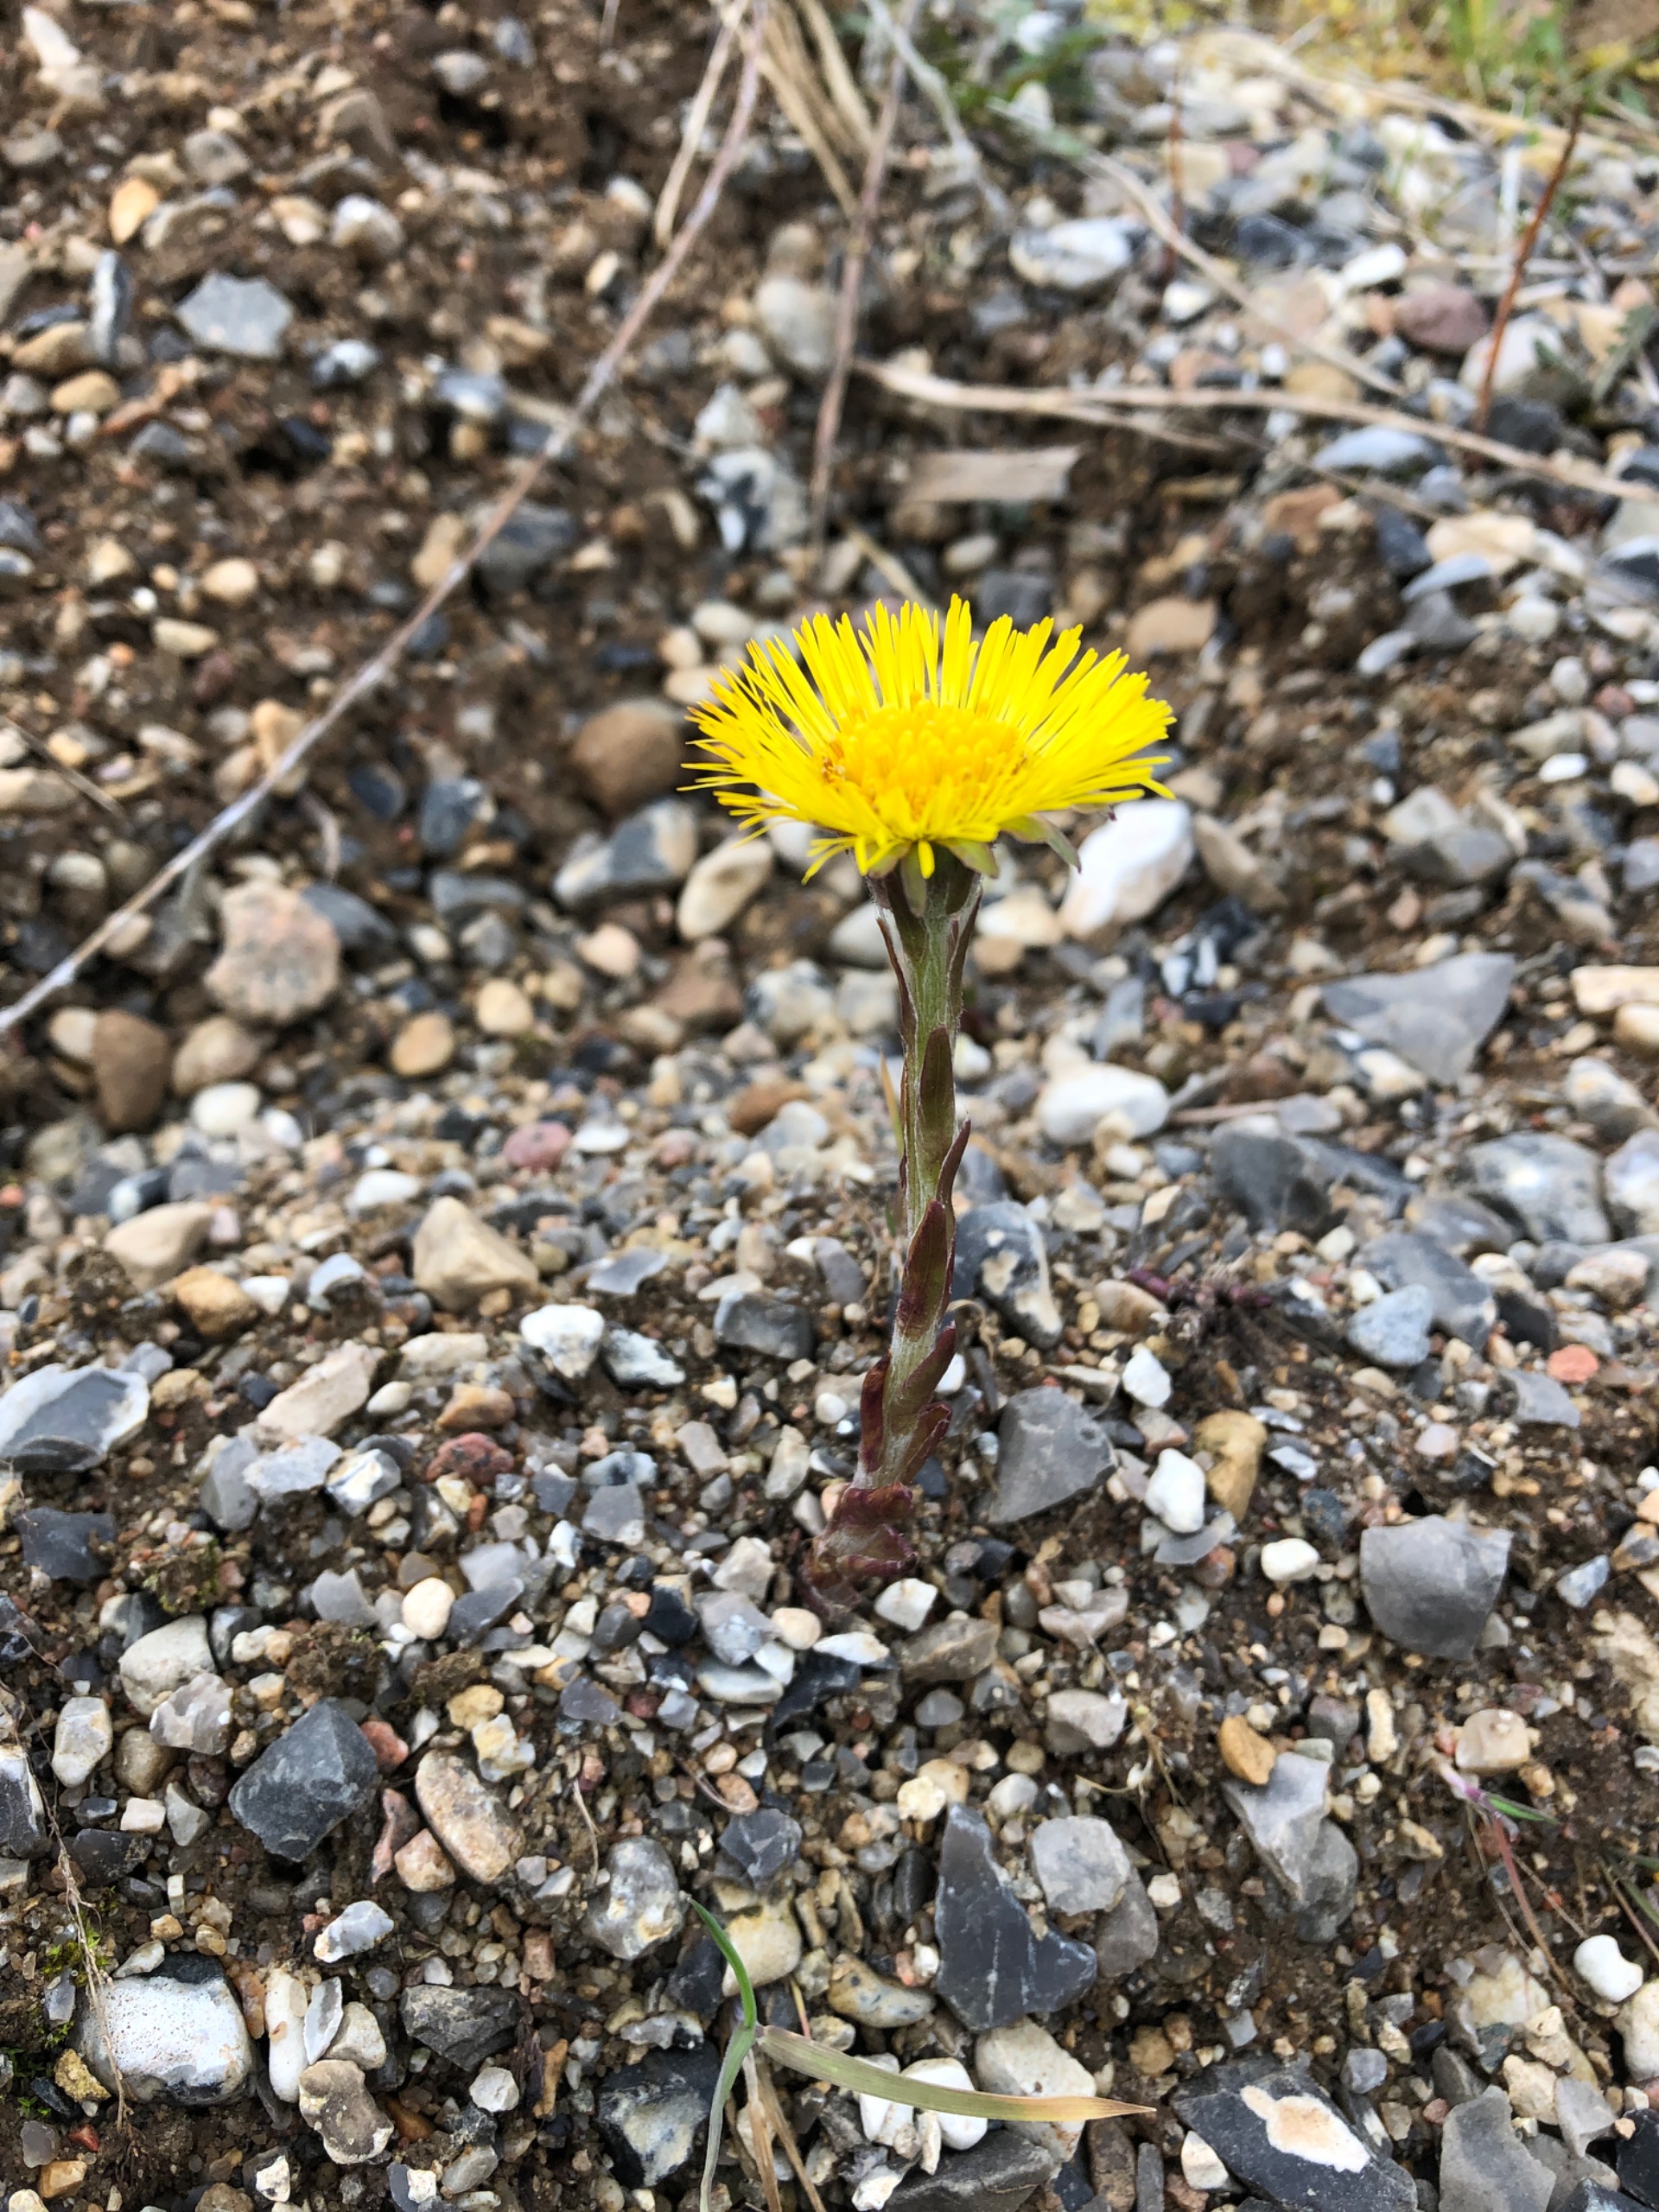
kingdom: Plantae
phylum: Tracheophyta
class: Magnoliopsida
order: Asterales
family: Asteraceae
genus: Tussilago
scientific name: Tussilago farfara
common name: Følfod
